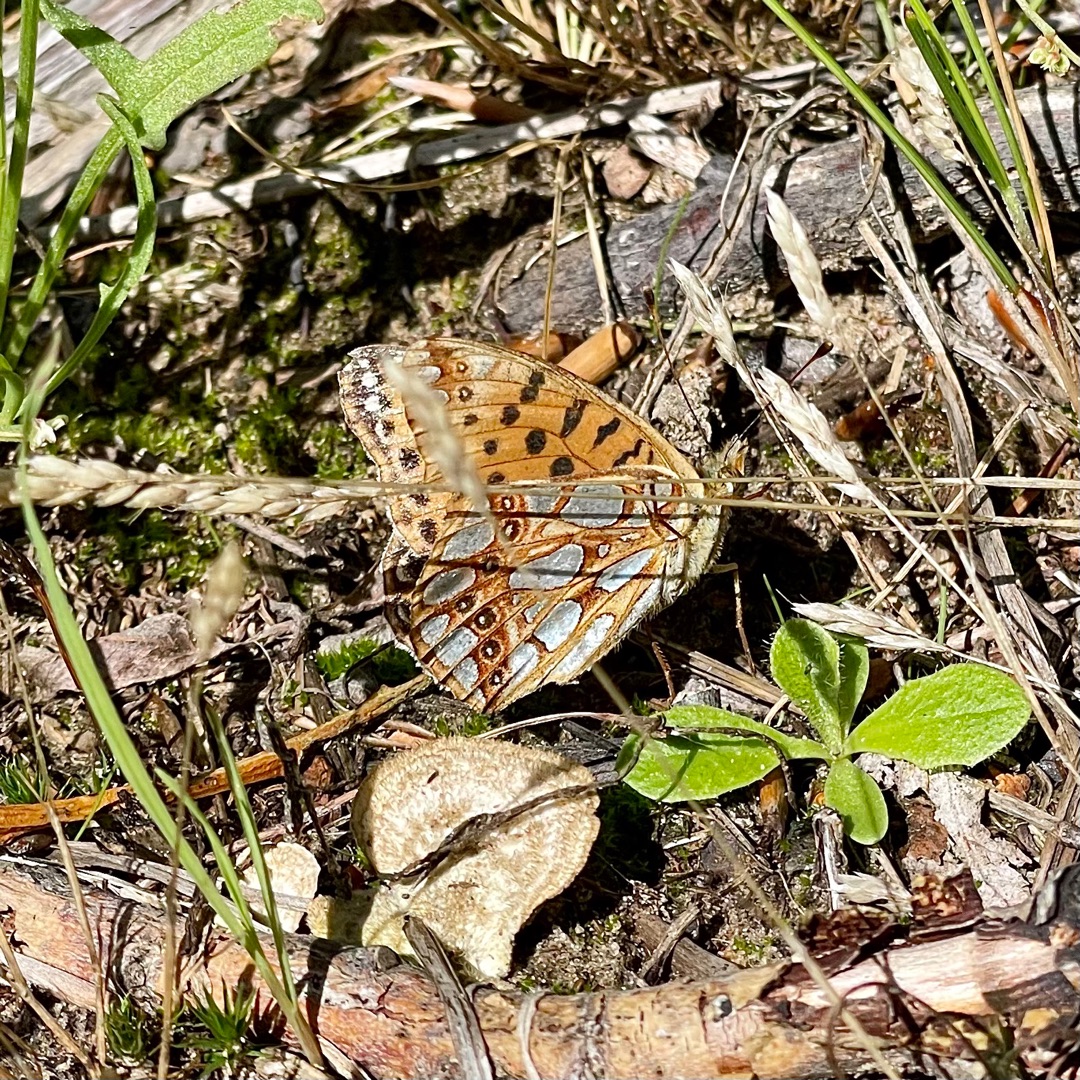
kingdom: Animalia
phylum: Arthropoda
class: Insecta
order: Lepidoptera
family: Nymphalidae
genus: Issoria
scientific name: Issoria lathonia
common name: Storplettet perlemorsommerfugl
